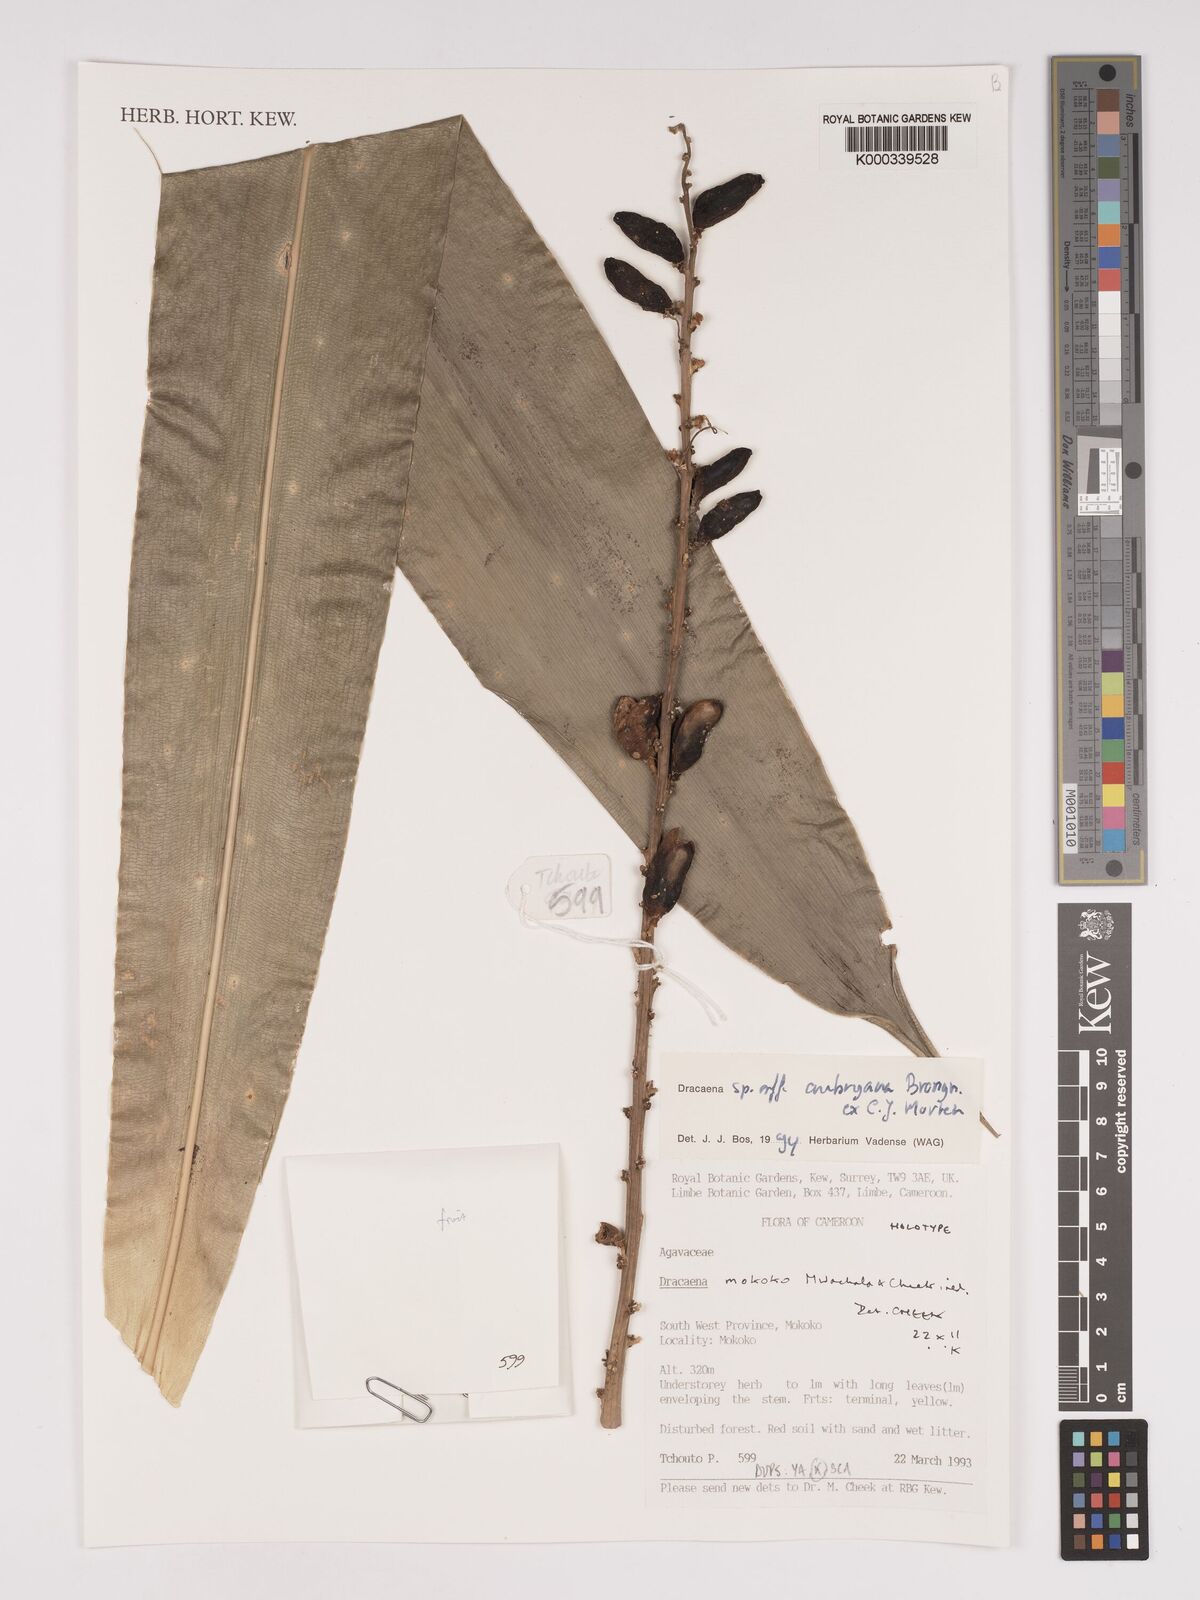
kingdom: Plantae
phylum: Tracheophyta
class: Liliopsida
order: Asparagales
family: Asparagaceae
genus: Dracaena
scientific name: Dracaena mokoko
